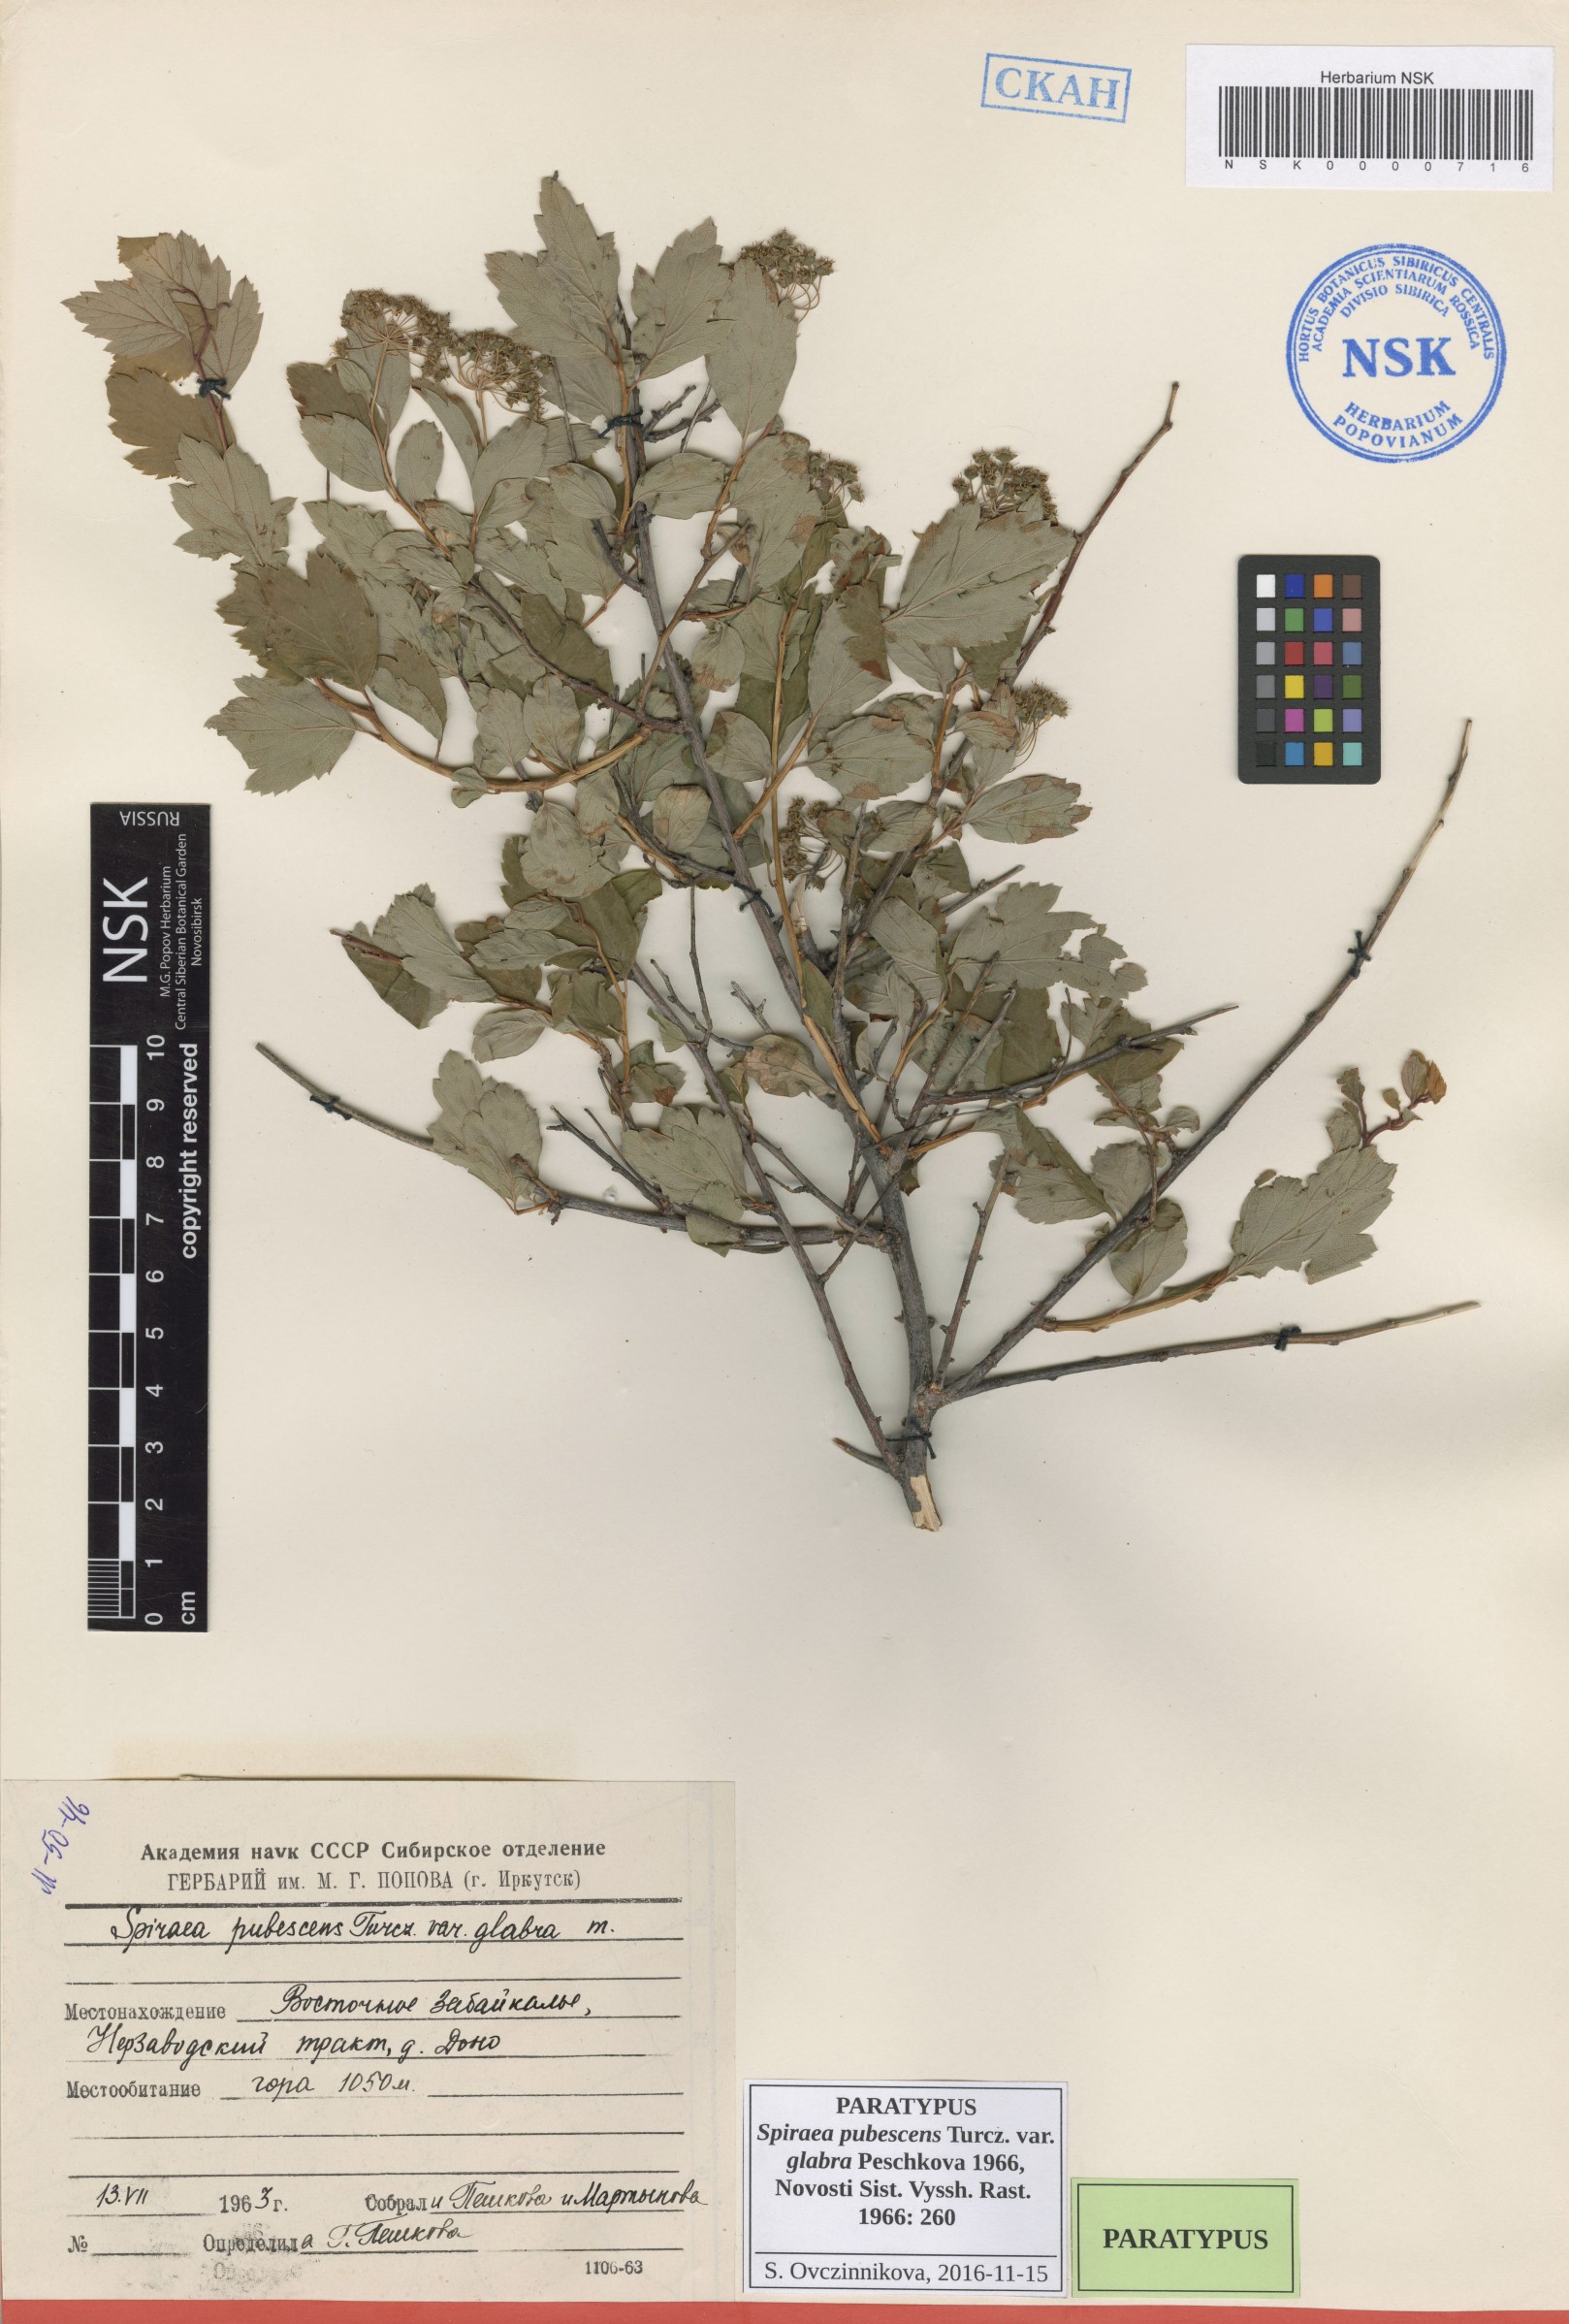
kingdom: Plantae
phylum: Tracheophyta
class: Magnoliopsida
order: Rosales
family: Rosaceae
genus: Spiraea
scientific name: Spiraea ouensanensis
